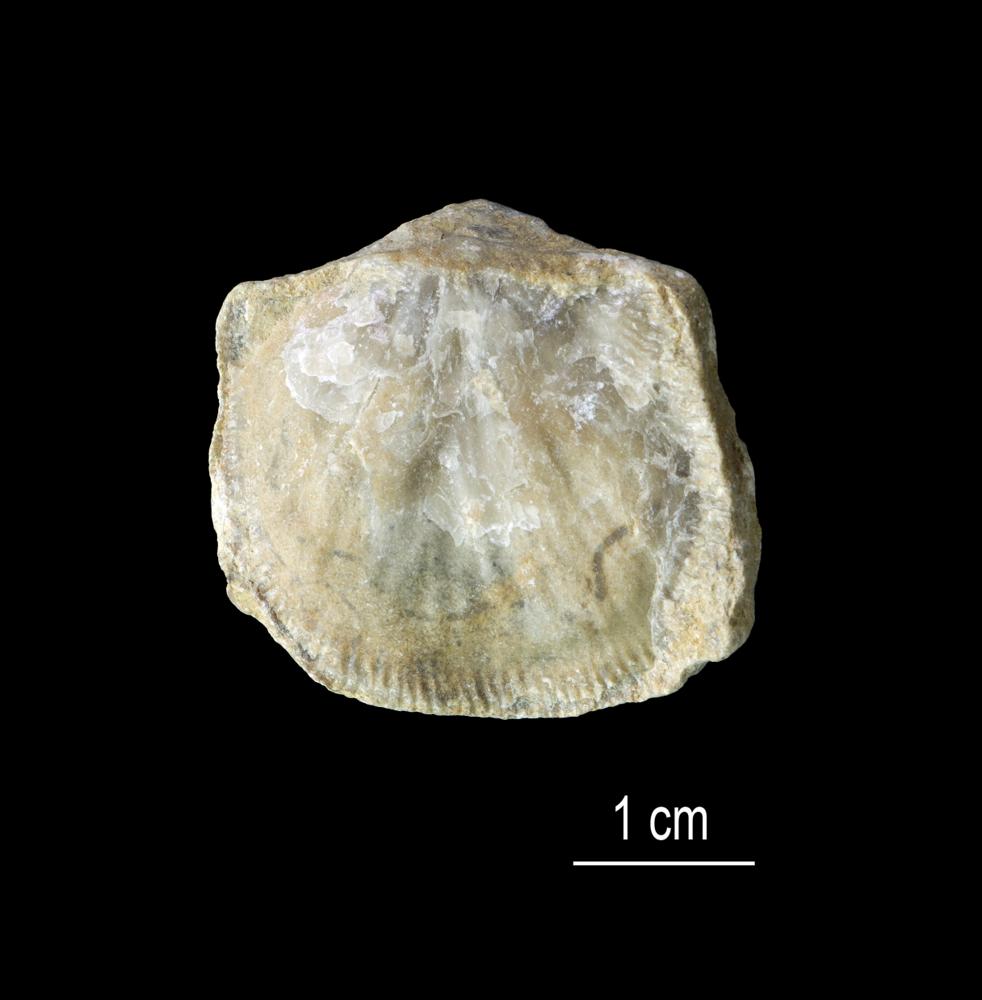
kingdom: Animalia
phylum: Brachiopoda
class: Rhynchonellata
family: Clitambonitidae
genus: Clitambonites
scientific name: Clitambonites squamatus
